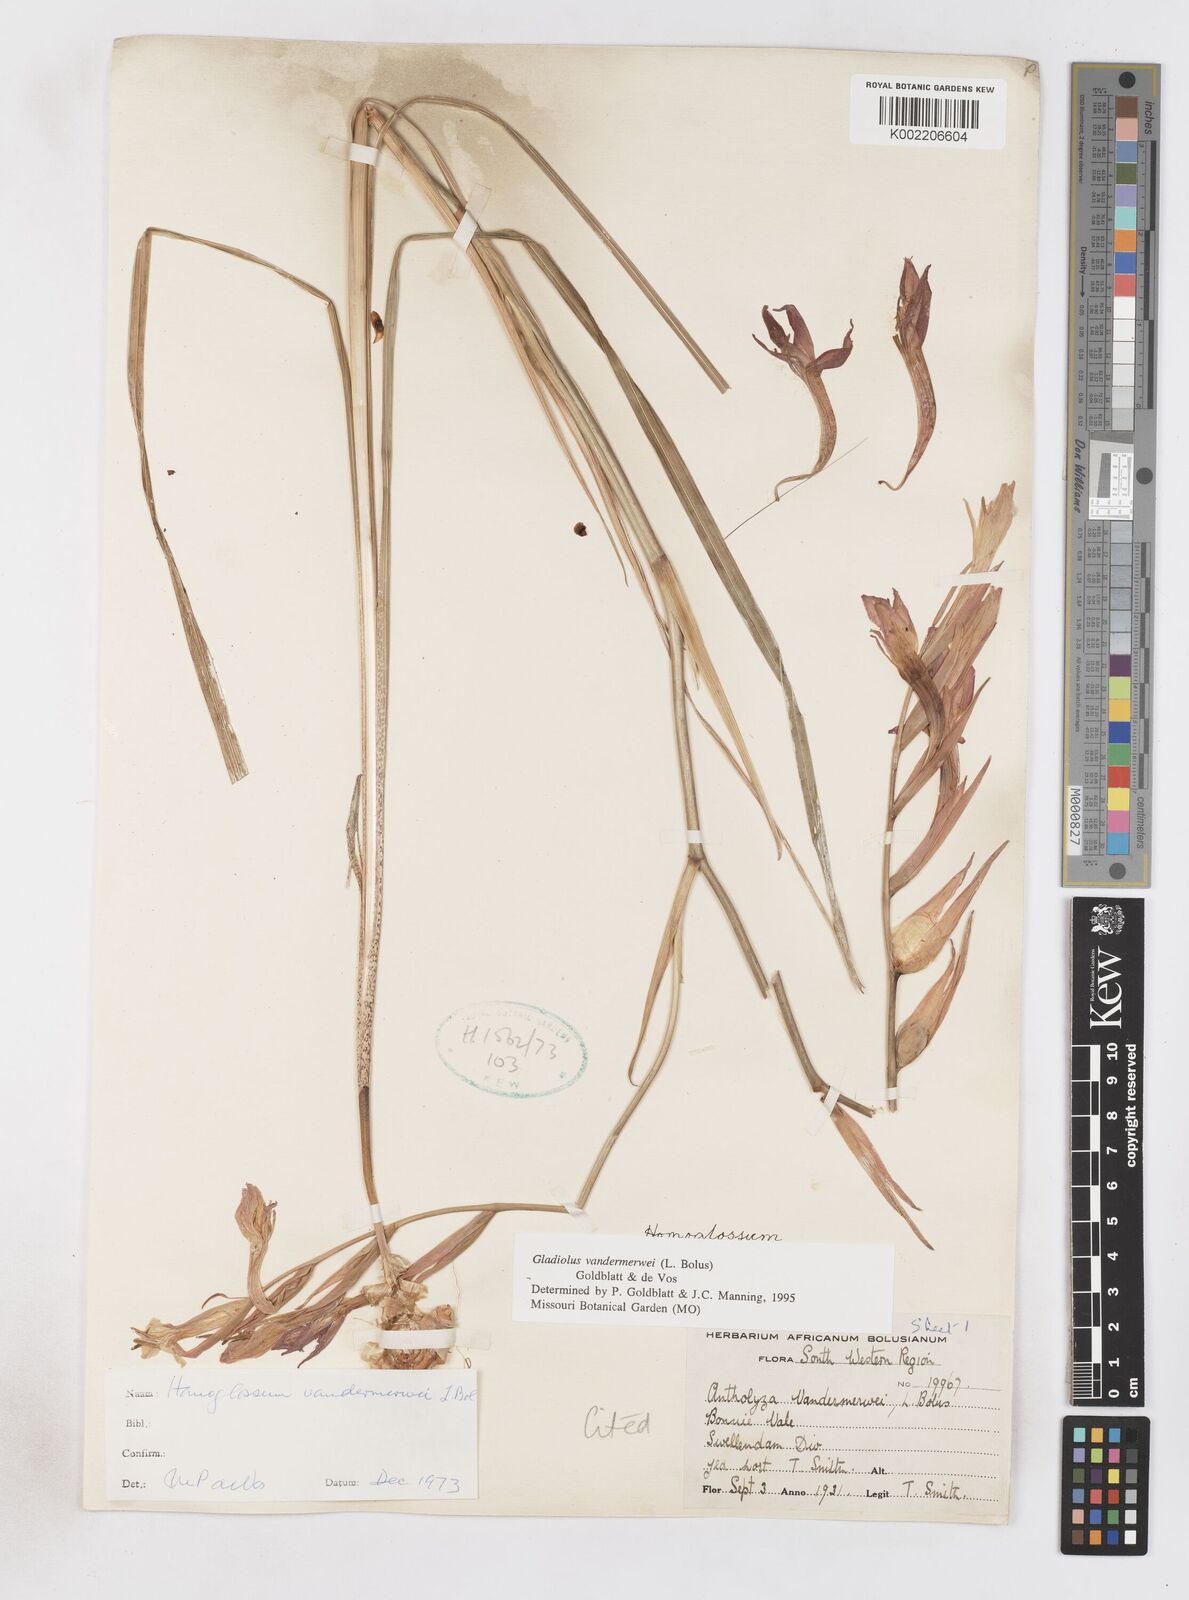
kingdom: Plantae
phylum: Tracheophyta
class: Liliopsida
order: Asparagales
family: Iridaceae
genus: Gladiolus
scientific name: Gladiolus vandermerwei
